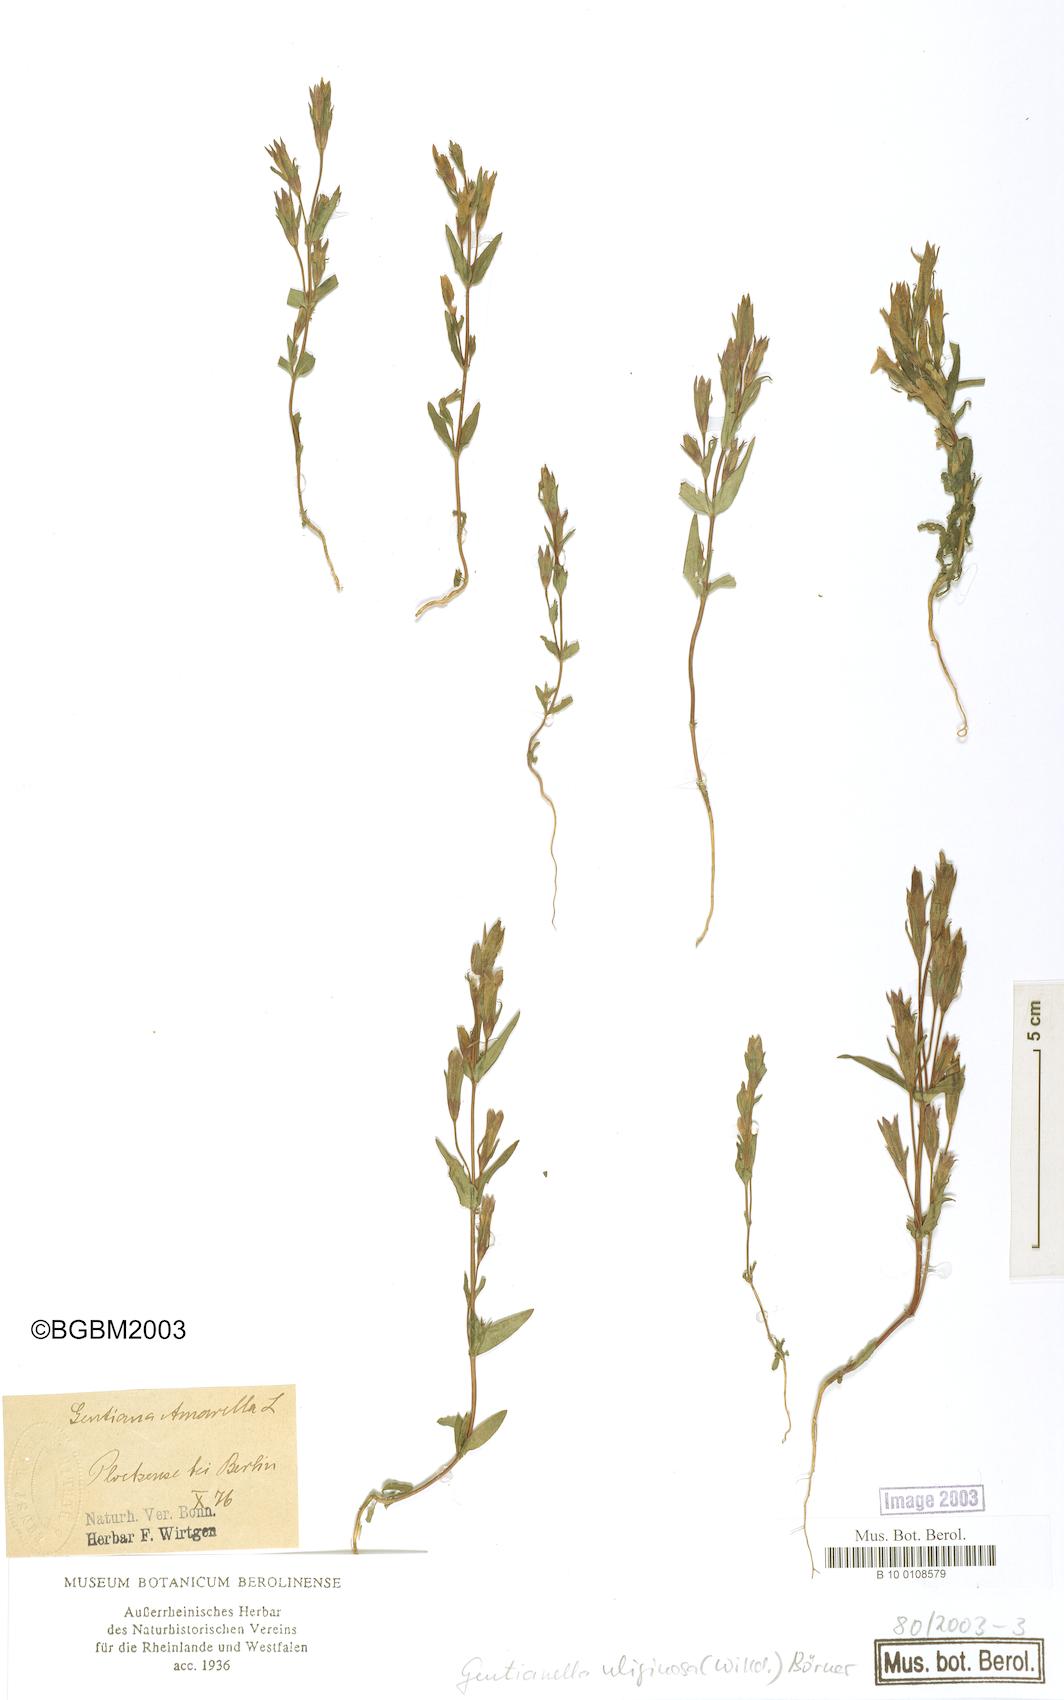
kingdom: Plantae
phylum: Tracheophyta
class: Magnoliopsida
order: Gentianales
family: Gentianaceae
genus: Gentianella
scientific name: Gentianella uliginosa
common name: Dune gentian
